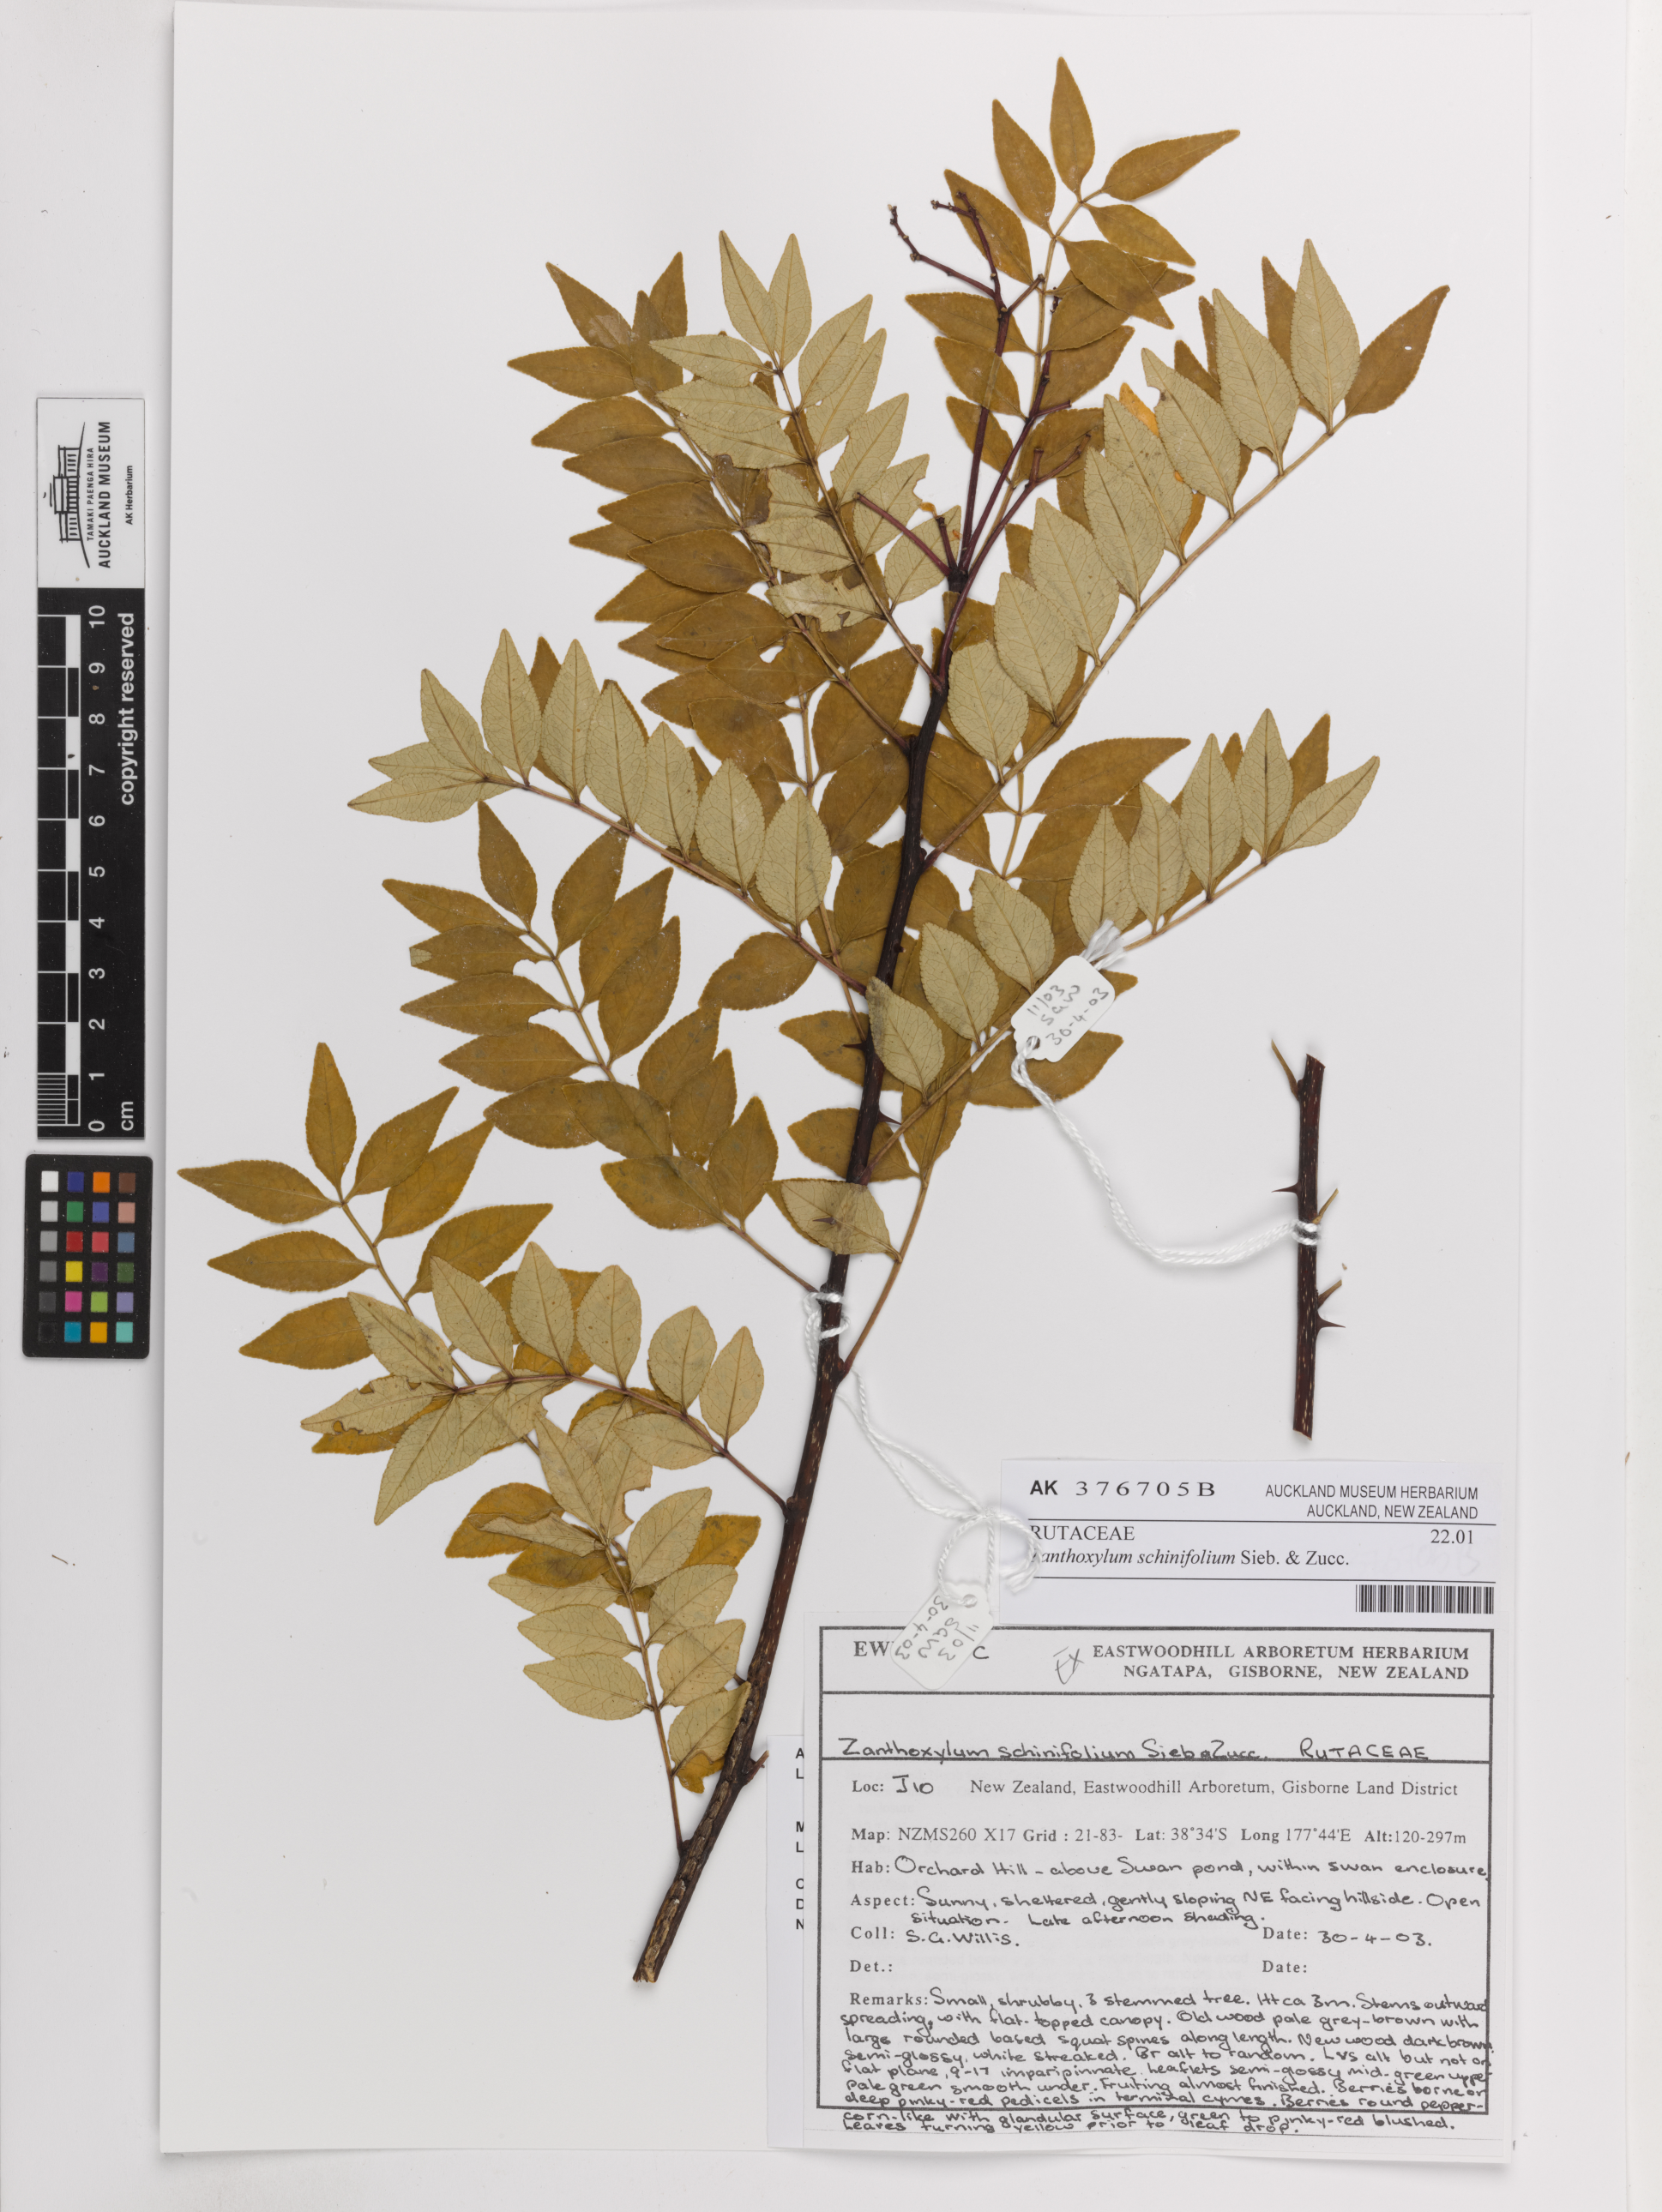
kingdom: Plantae
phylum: Tracheophyta
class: Magnoliopsida
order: Sapindales
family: Rutaceae
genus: Zanthoxylum
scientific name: Zanthoxylum schinifolium
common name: Sichuan-pepper
